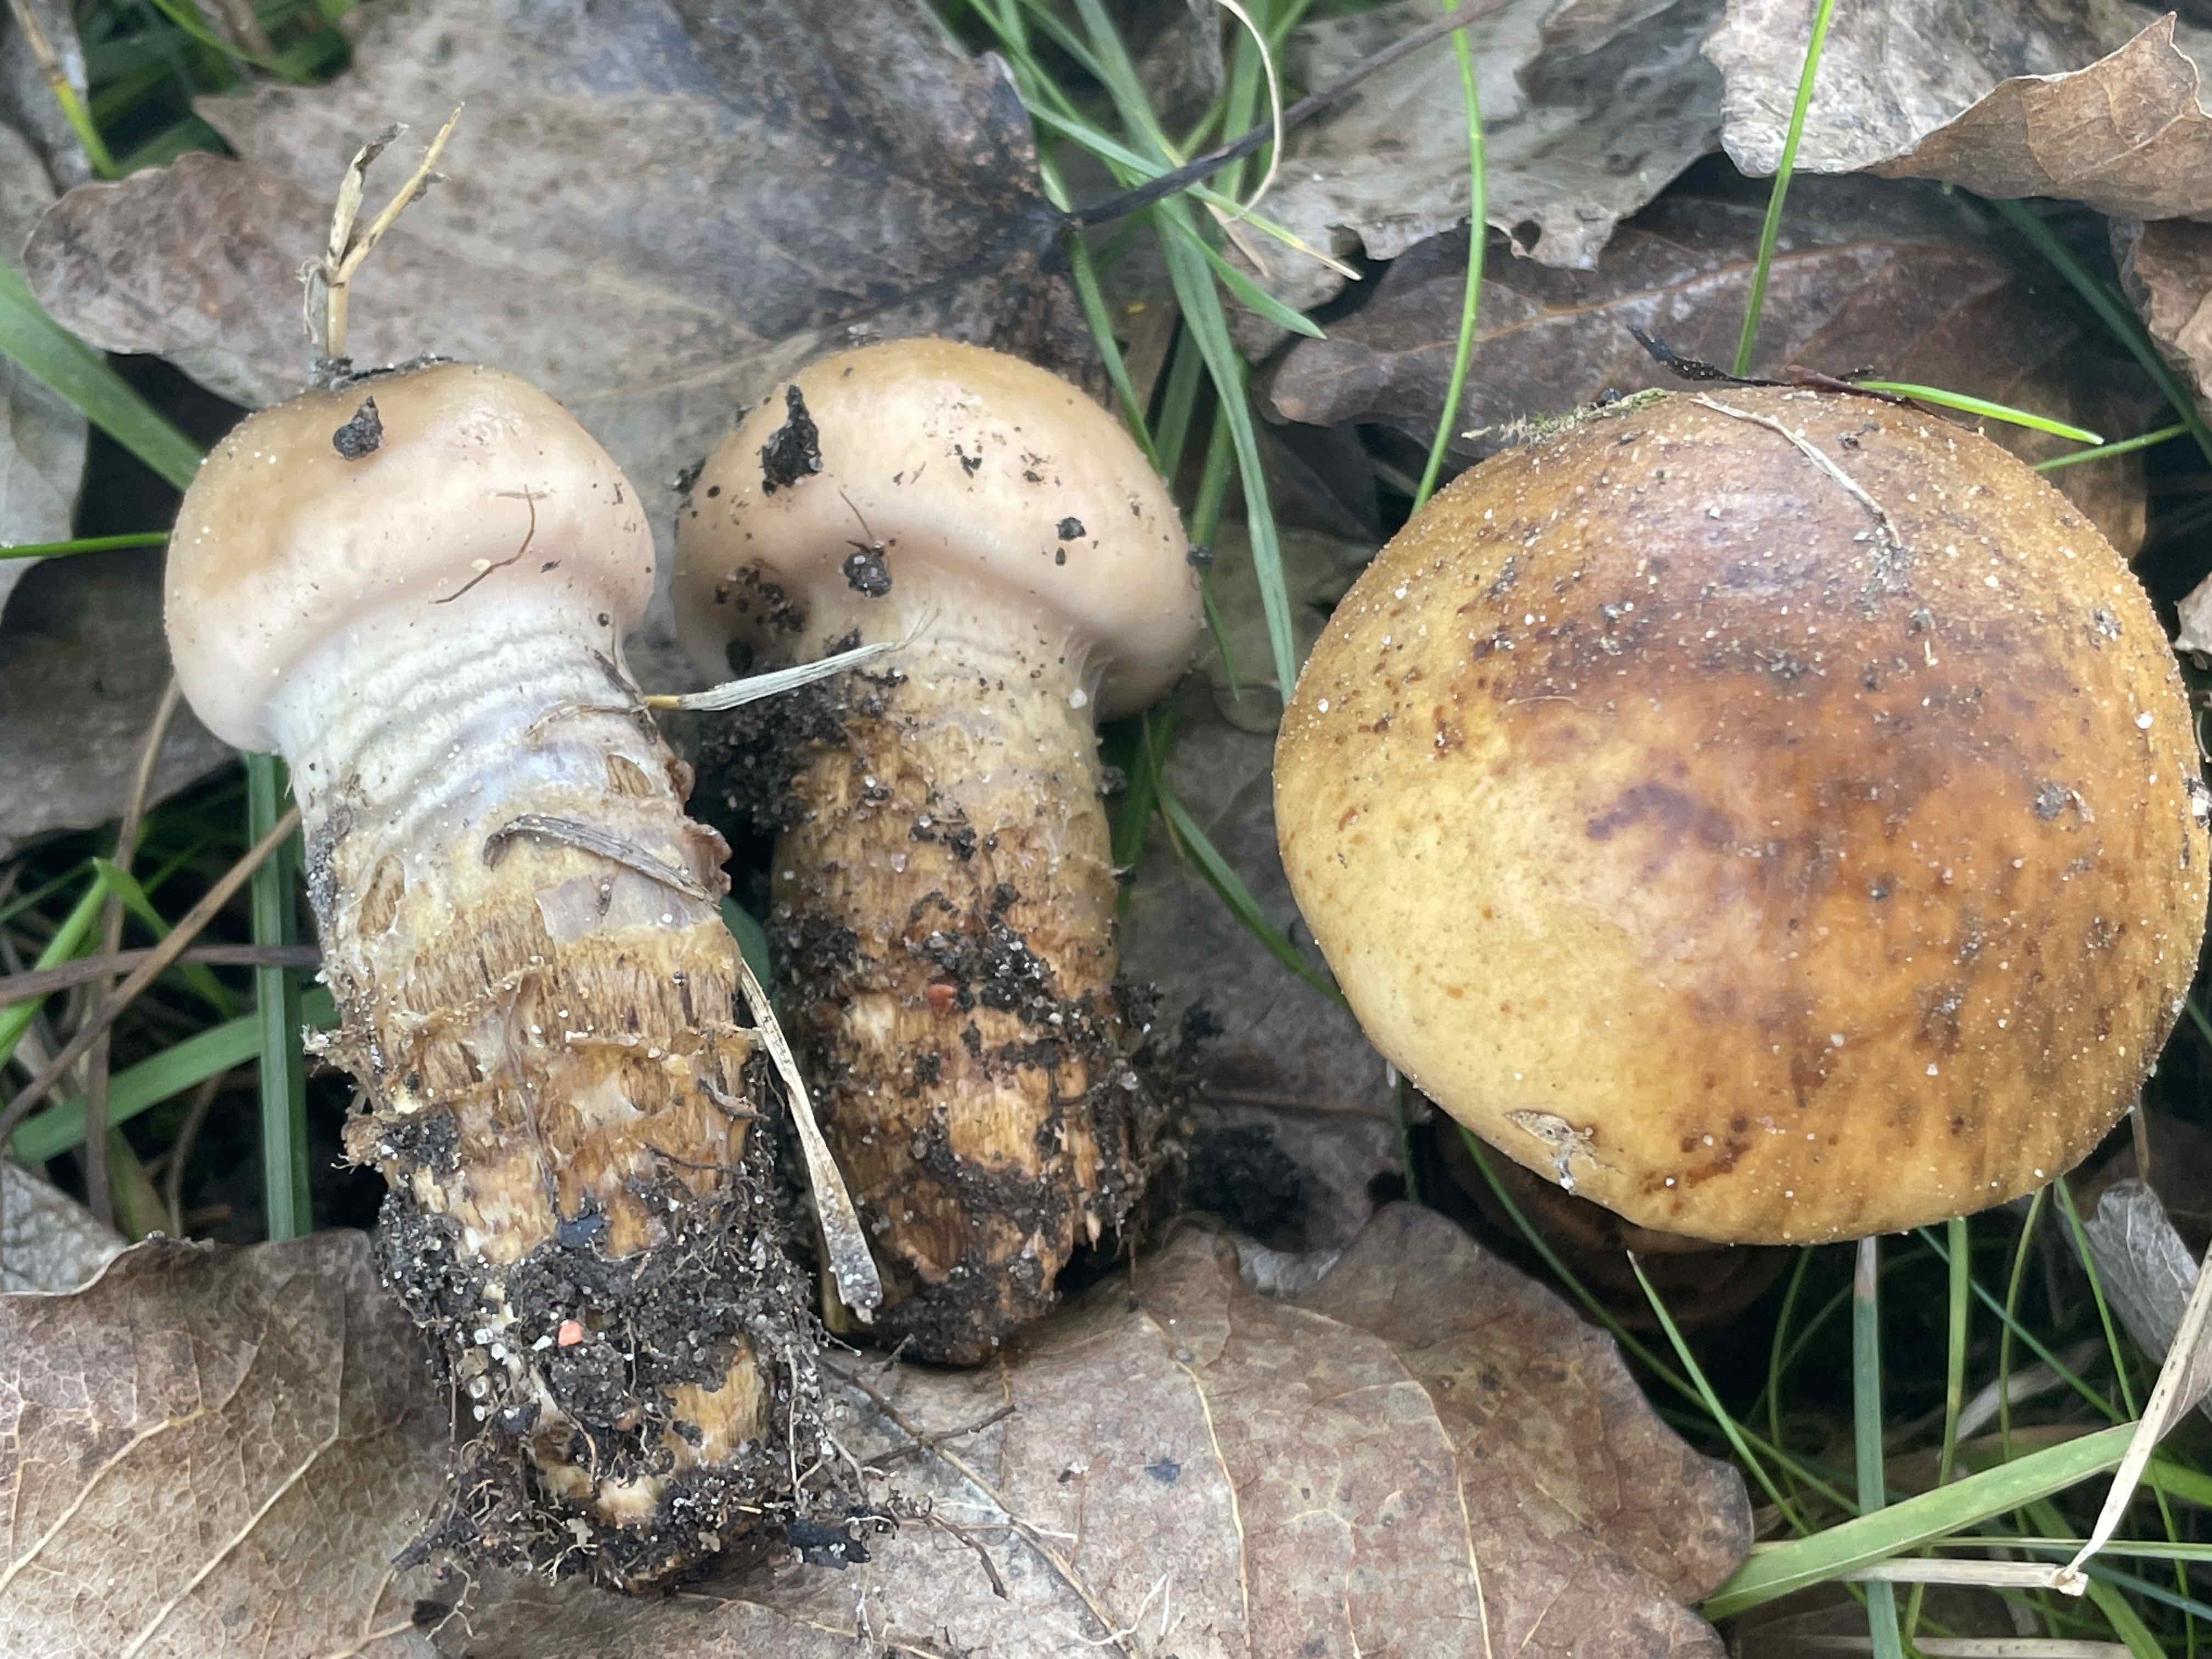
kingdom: Fungi
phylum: Basidiomycota
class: Agaricomycetes
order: Agaricales
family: Cortinariaceae
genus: Cortinarius
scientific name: Cortinarius trivialis
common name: Girdled webcap
